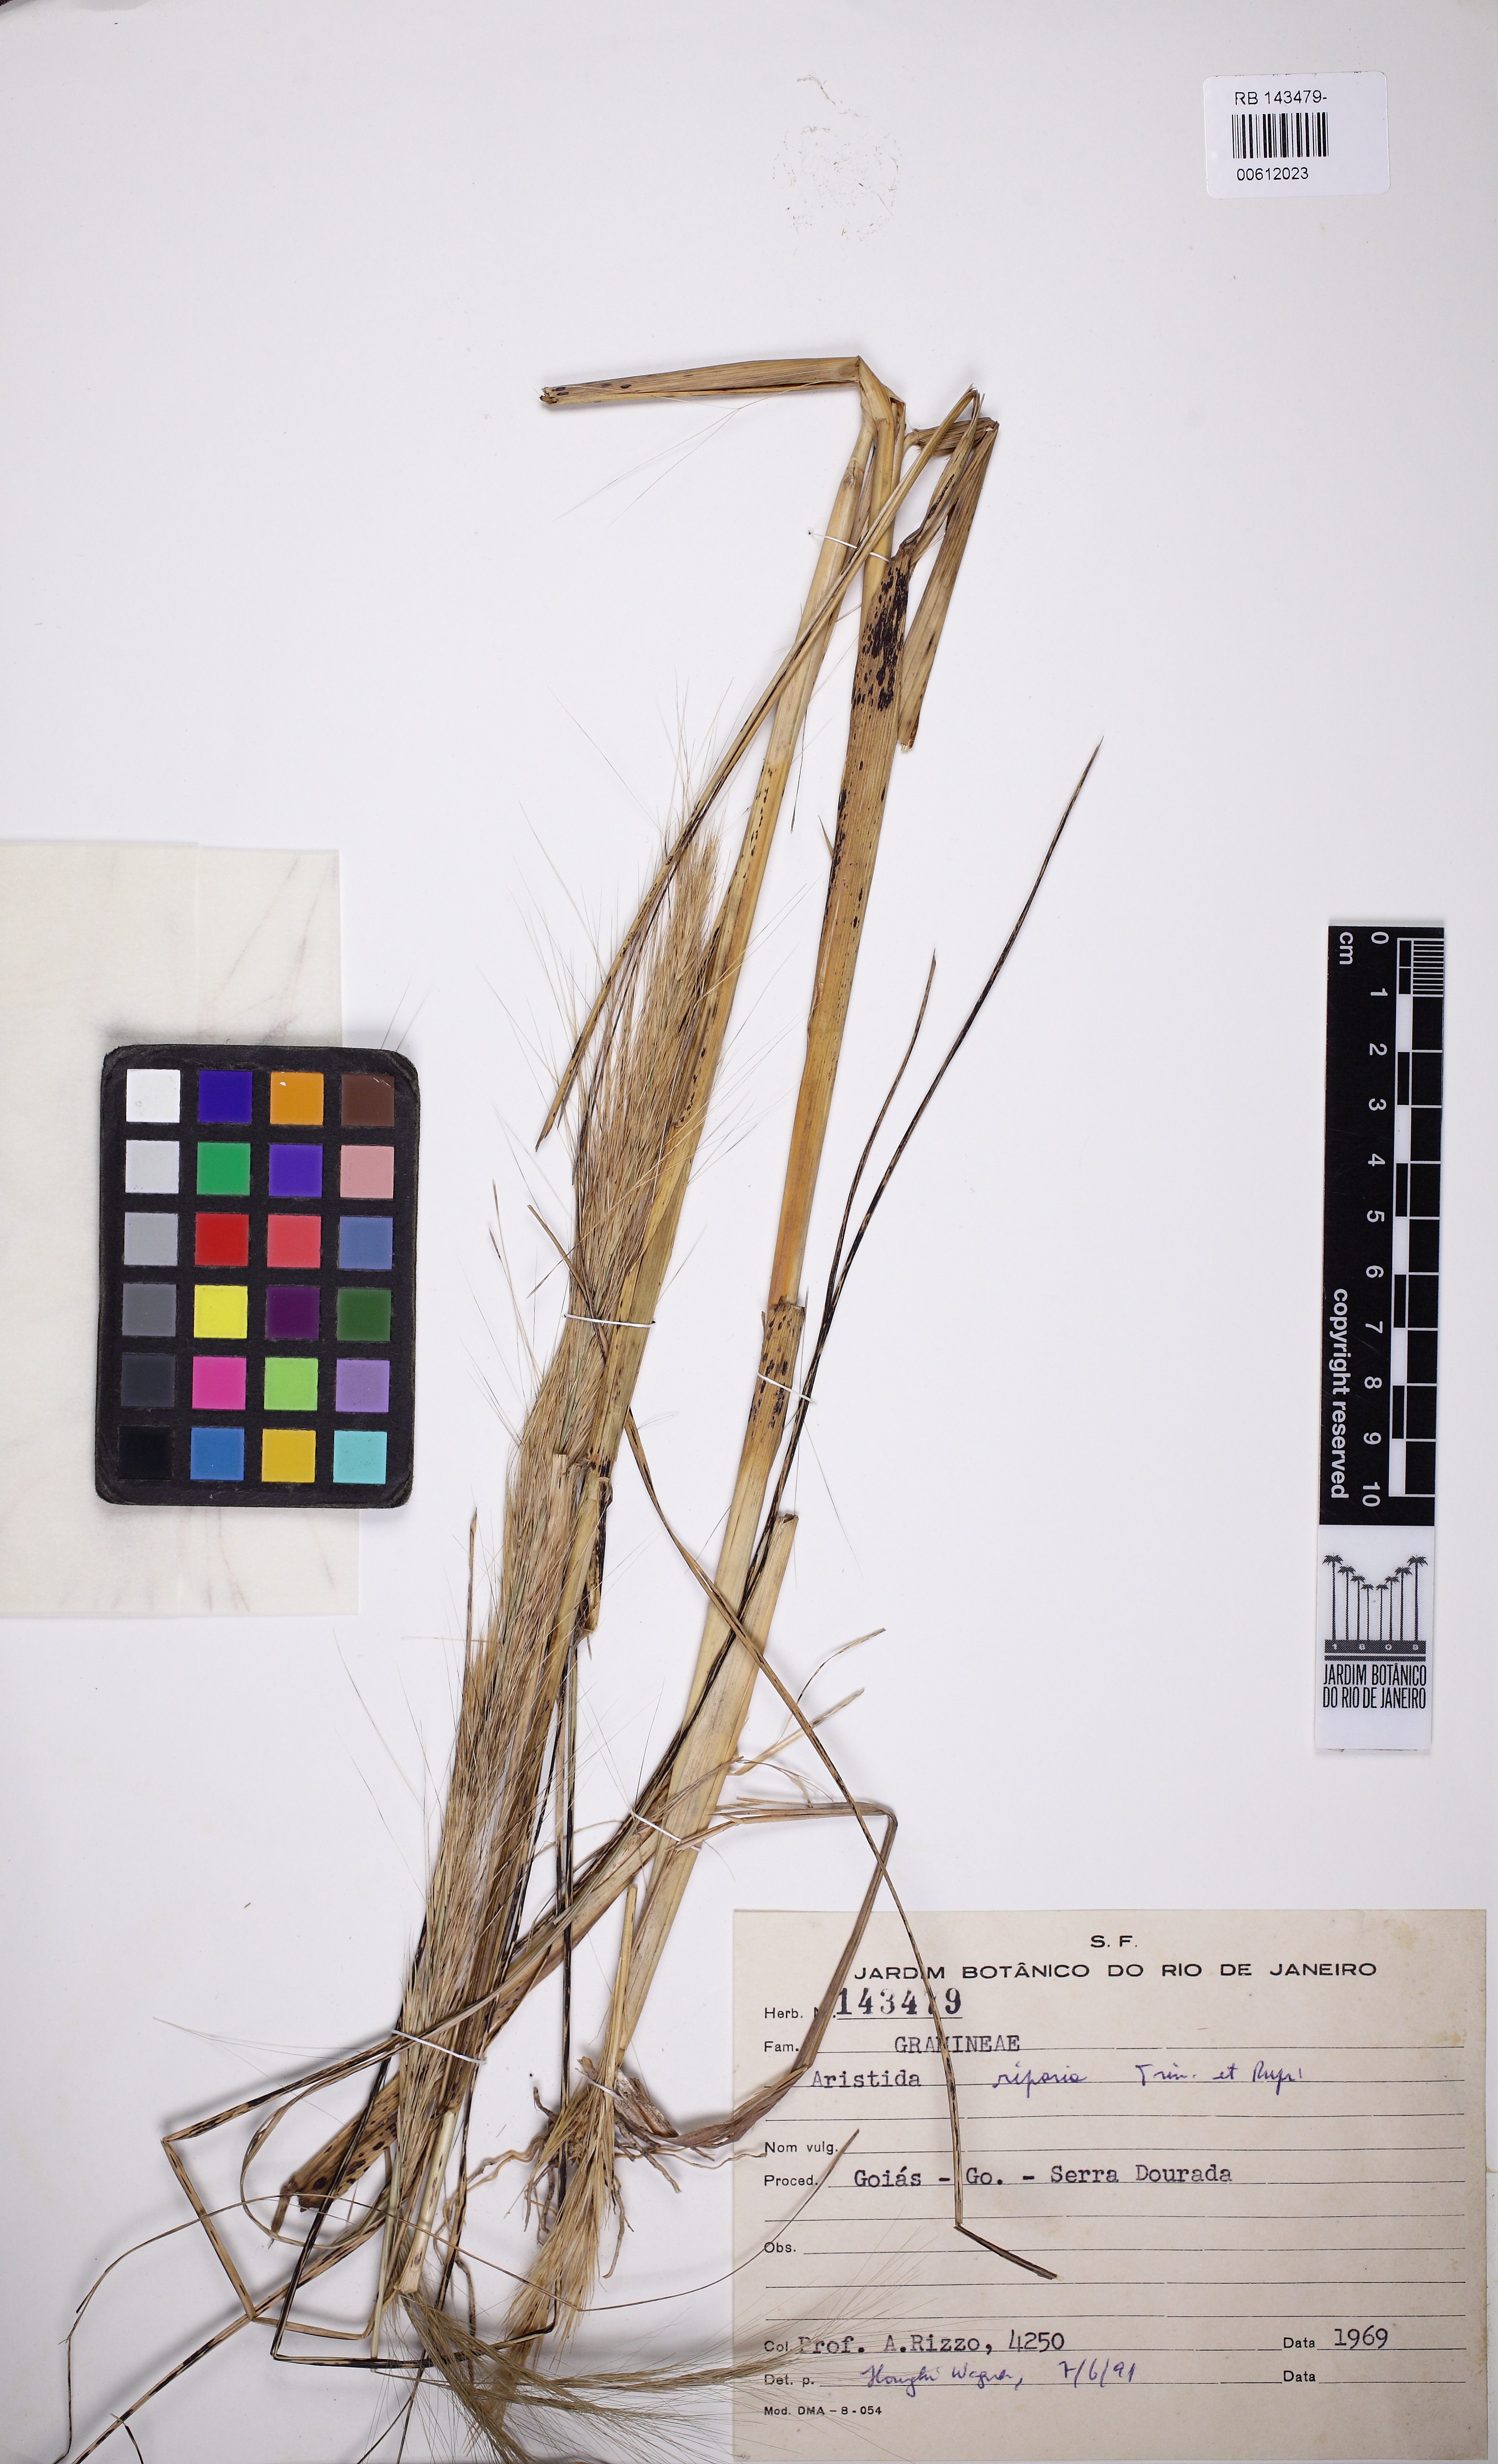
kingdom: Plantae
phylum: Tracheophyta
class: Liliopsida
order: Poales
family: Poaceae
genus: Aristida
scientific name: Aristida riparia
